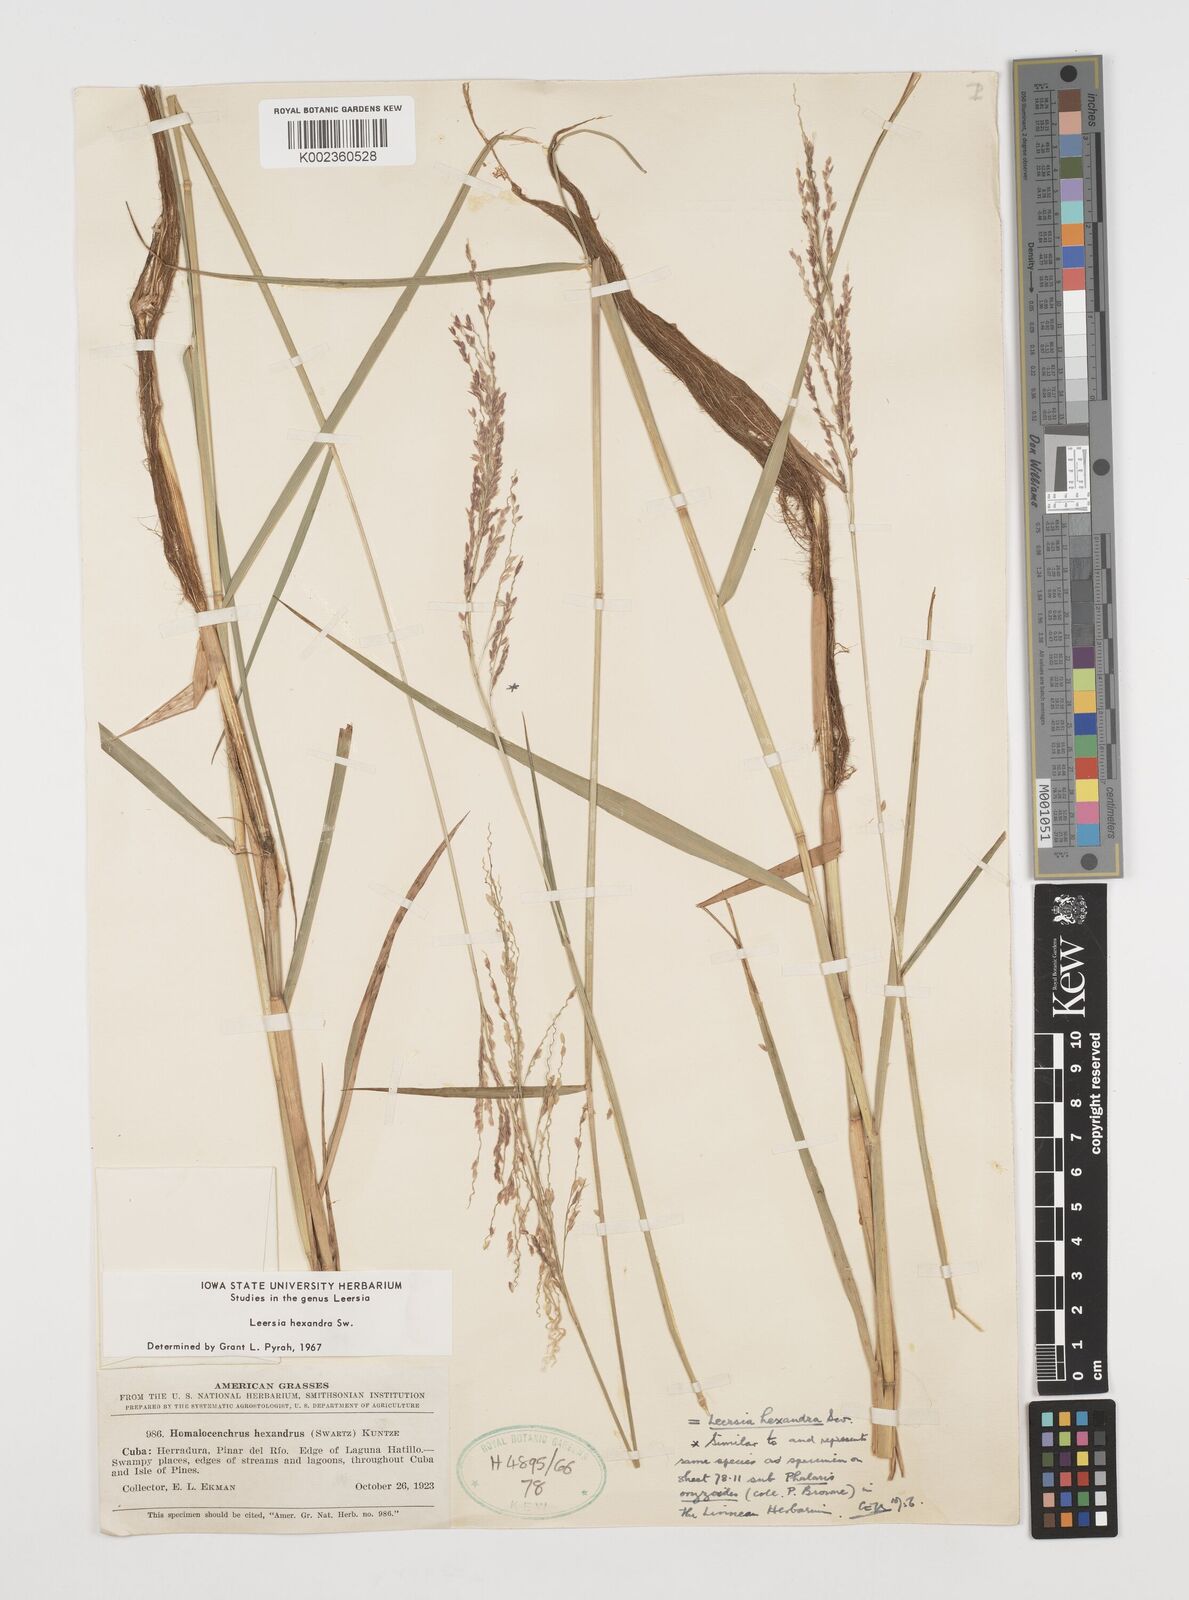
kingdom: Plantae
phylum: Tracheophyta
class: Liliopsida
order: Poales
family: Poaceae
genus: Leersia
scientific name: Leersia hexandra
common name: Southern cut grass
